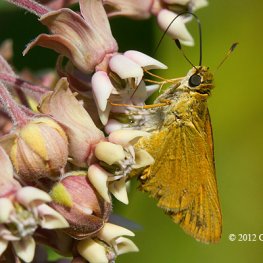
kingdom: Animalia
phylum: Arthropoda
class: Insecta
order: Lepidoptera
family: Hesperiidae
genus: Atrytone
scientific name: Atrytone delaware
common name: Delaware Skipper
